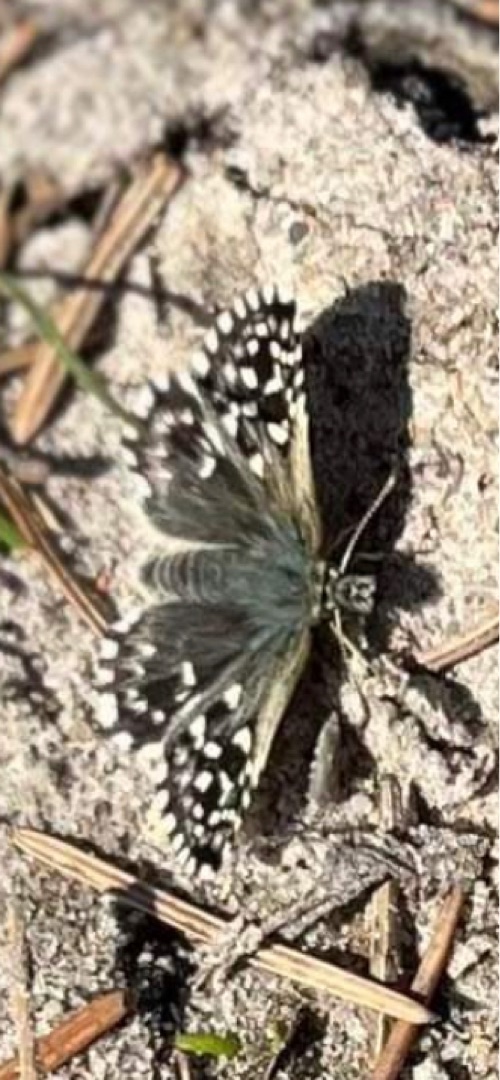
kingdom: Animalia
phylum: Arthropoda
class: Insecta
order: Lepidoptera
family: Hesperiidae
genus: Pyrgus
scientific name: Pyrgus malvae
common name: Spættet bredpande
